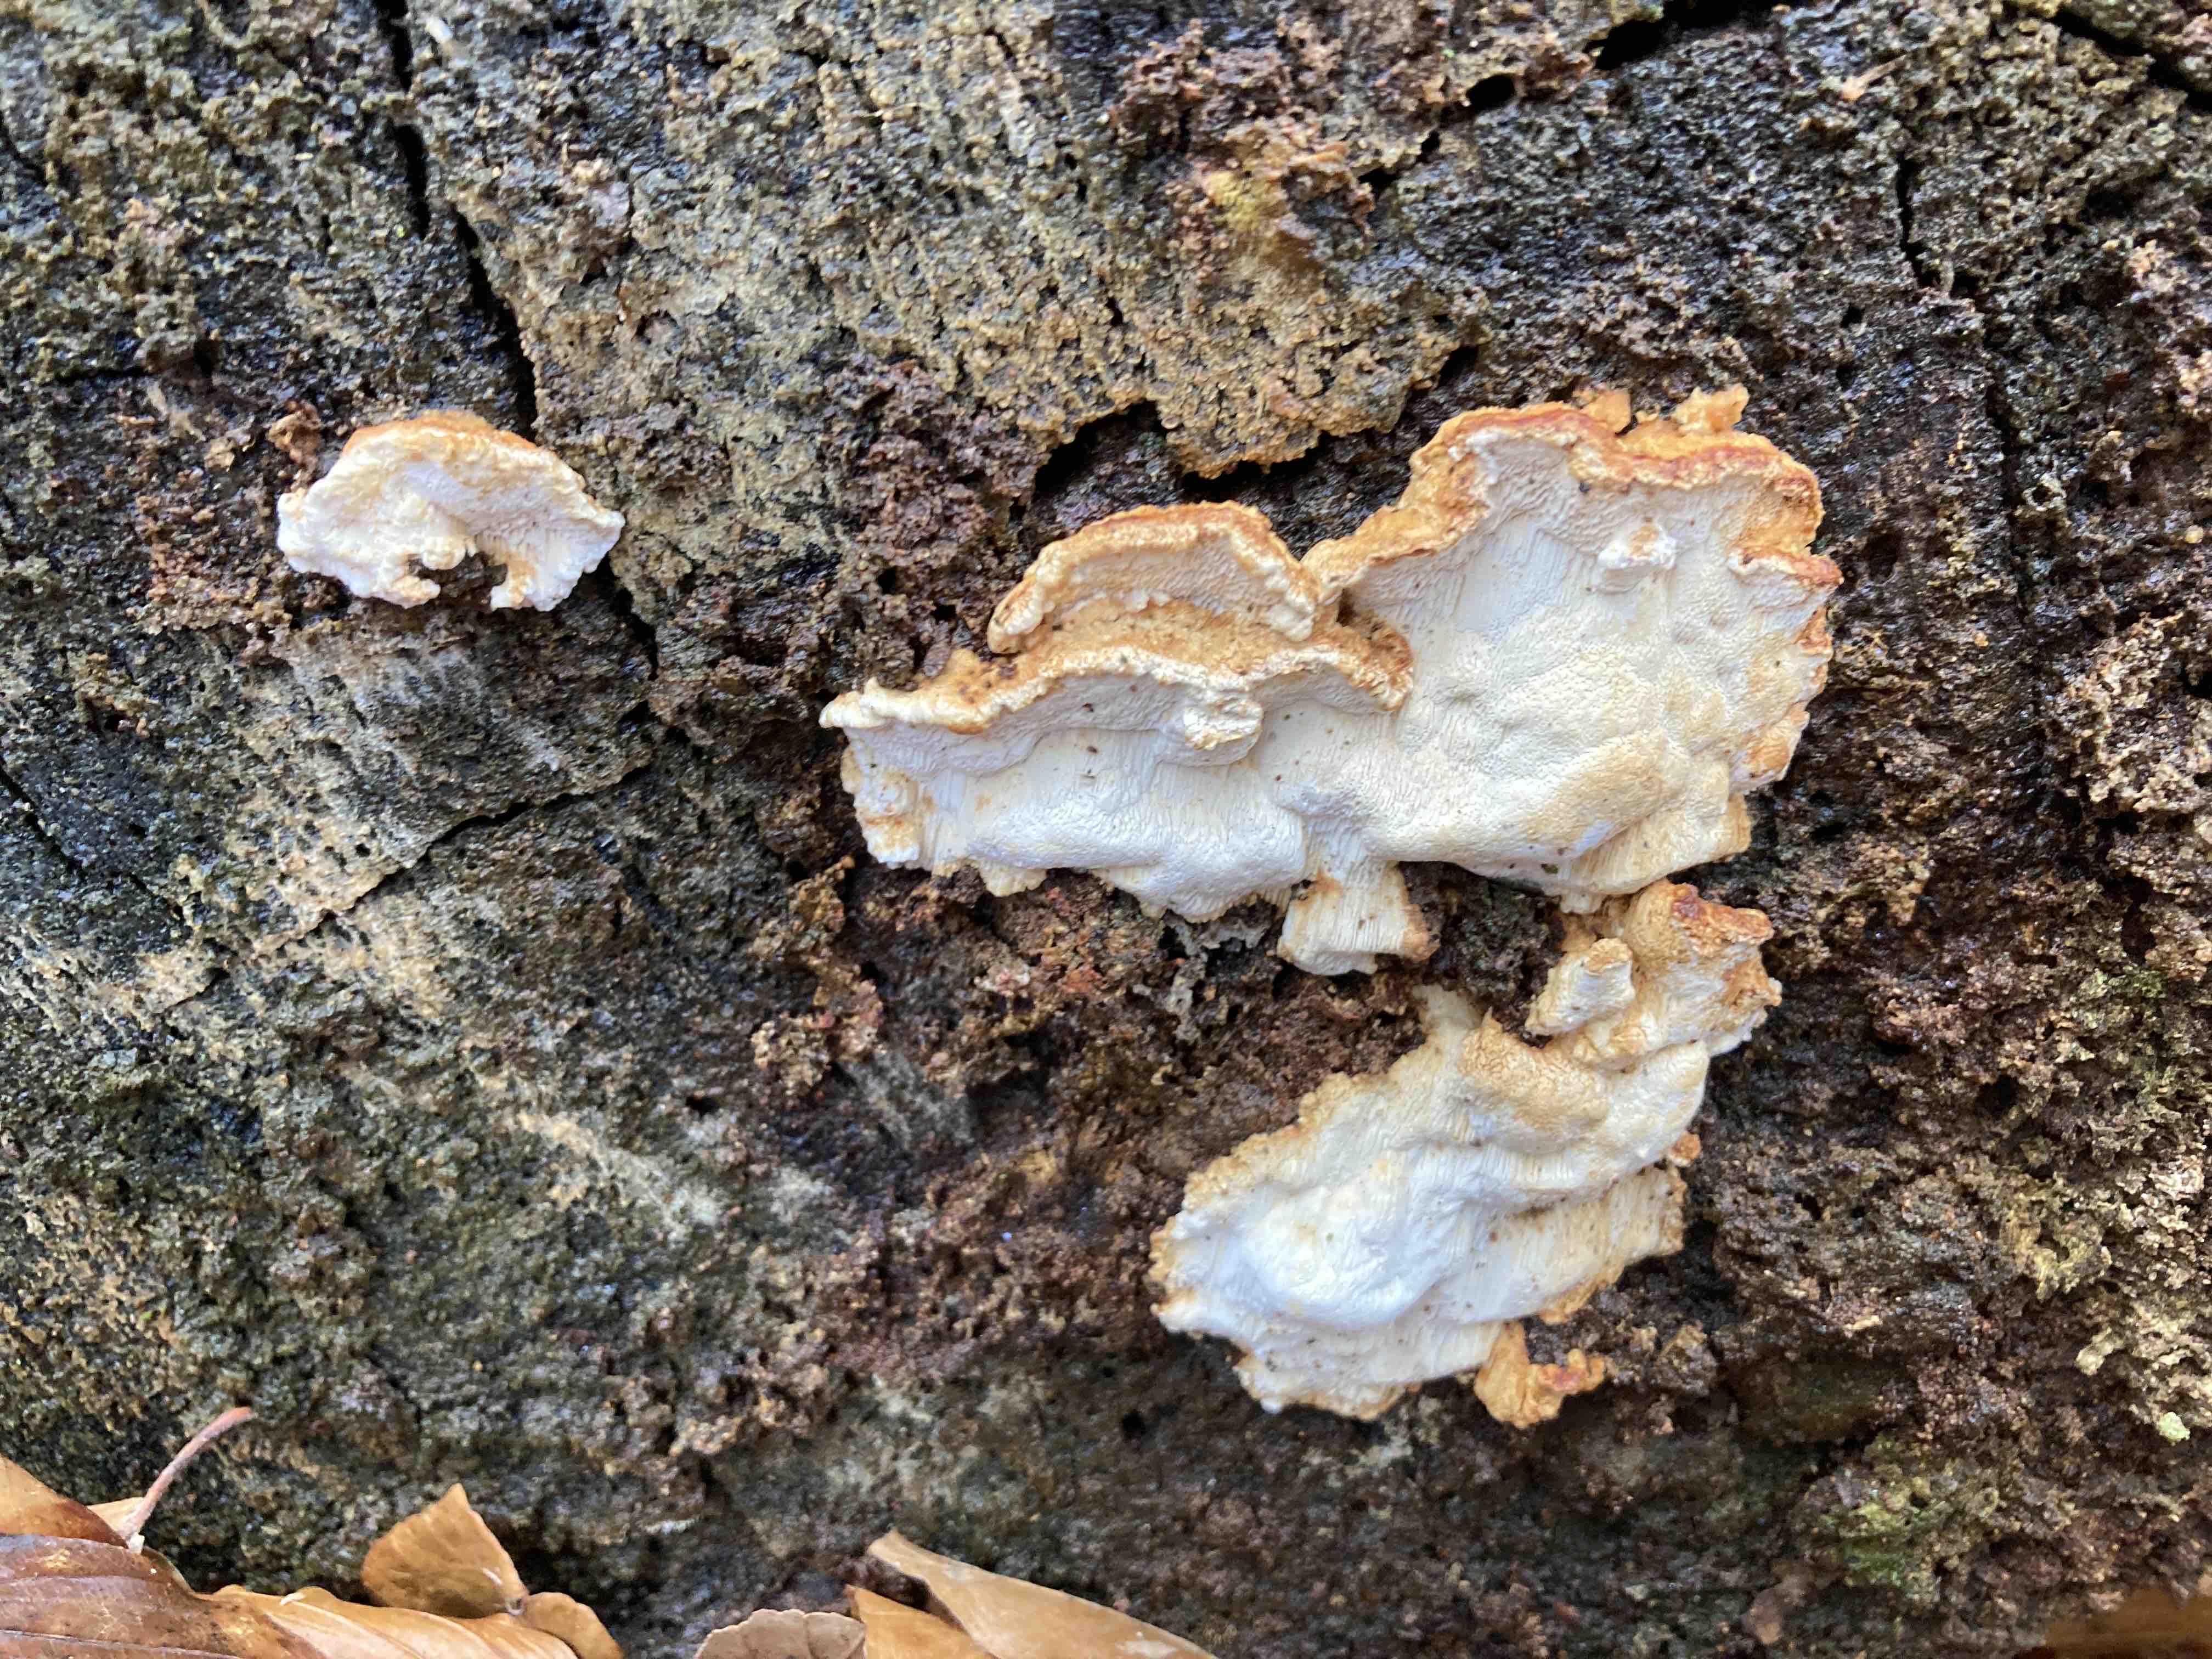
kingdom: Fungi
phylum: Basidiomycota
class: Agaricomycetes
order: Polyporales
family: Fomitopsidaceae
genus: Neoantrodia
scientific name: Neoantrodia serialis
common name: række-sejporesvamp
